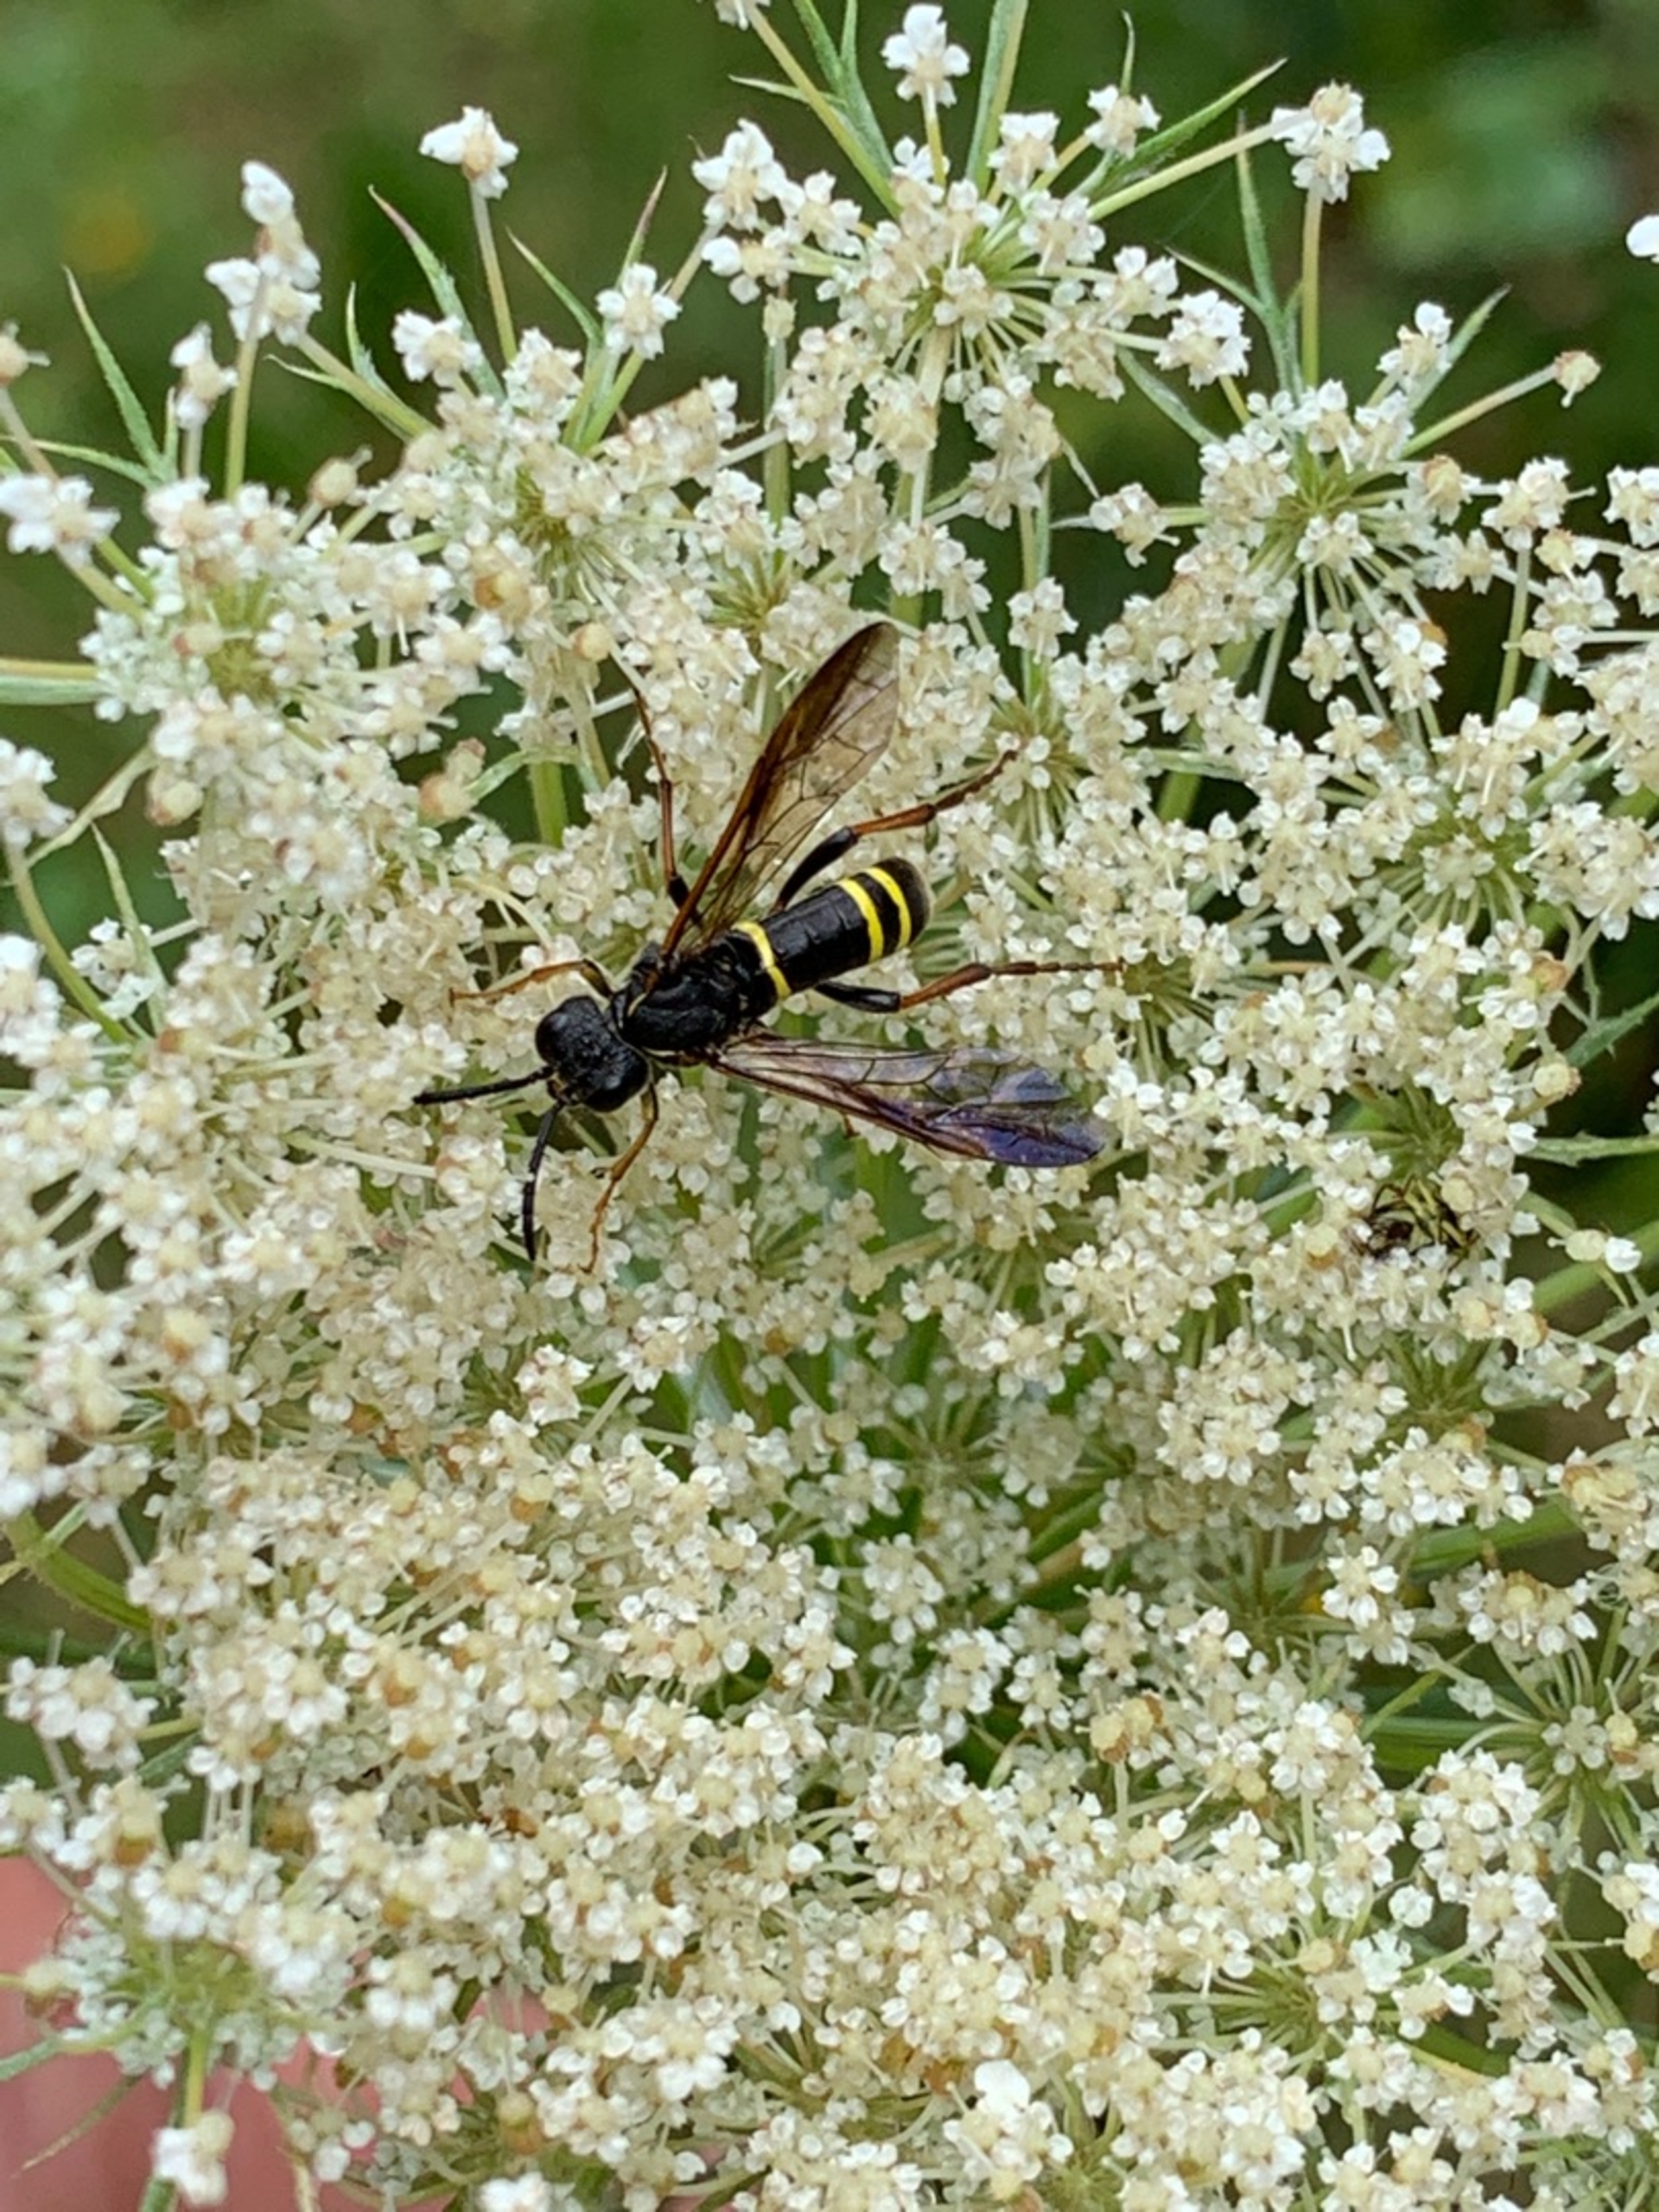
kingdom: Animalia
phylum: Arthropoda
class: Insecta
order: Hymenoptera
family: Tenthredinidae
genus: Tenthredo
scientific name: Tenthredo vespa
